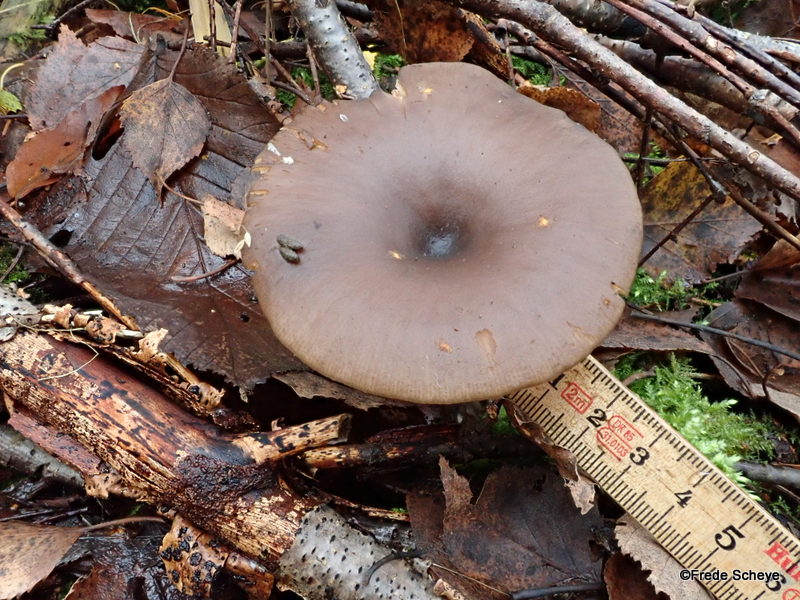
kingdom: Fungi
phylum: Basidiomycota
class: Agaricomycetes
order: Agaricales
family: Pseudoclitocybaceae
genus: Pseudoclitocybe
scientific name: Pseudoclitocybe cyathiformis
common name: almindelig bægertragthat
